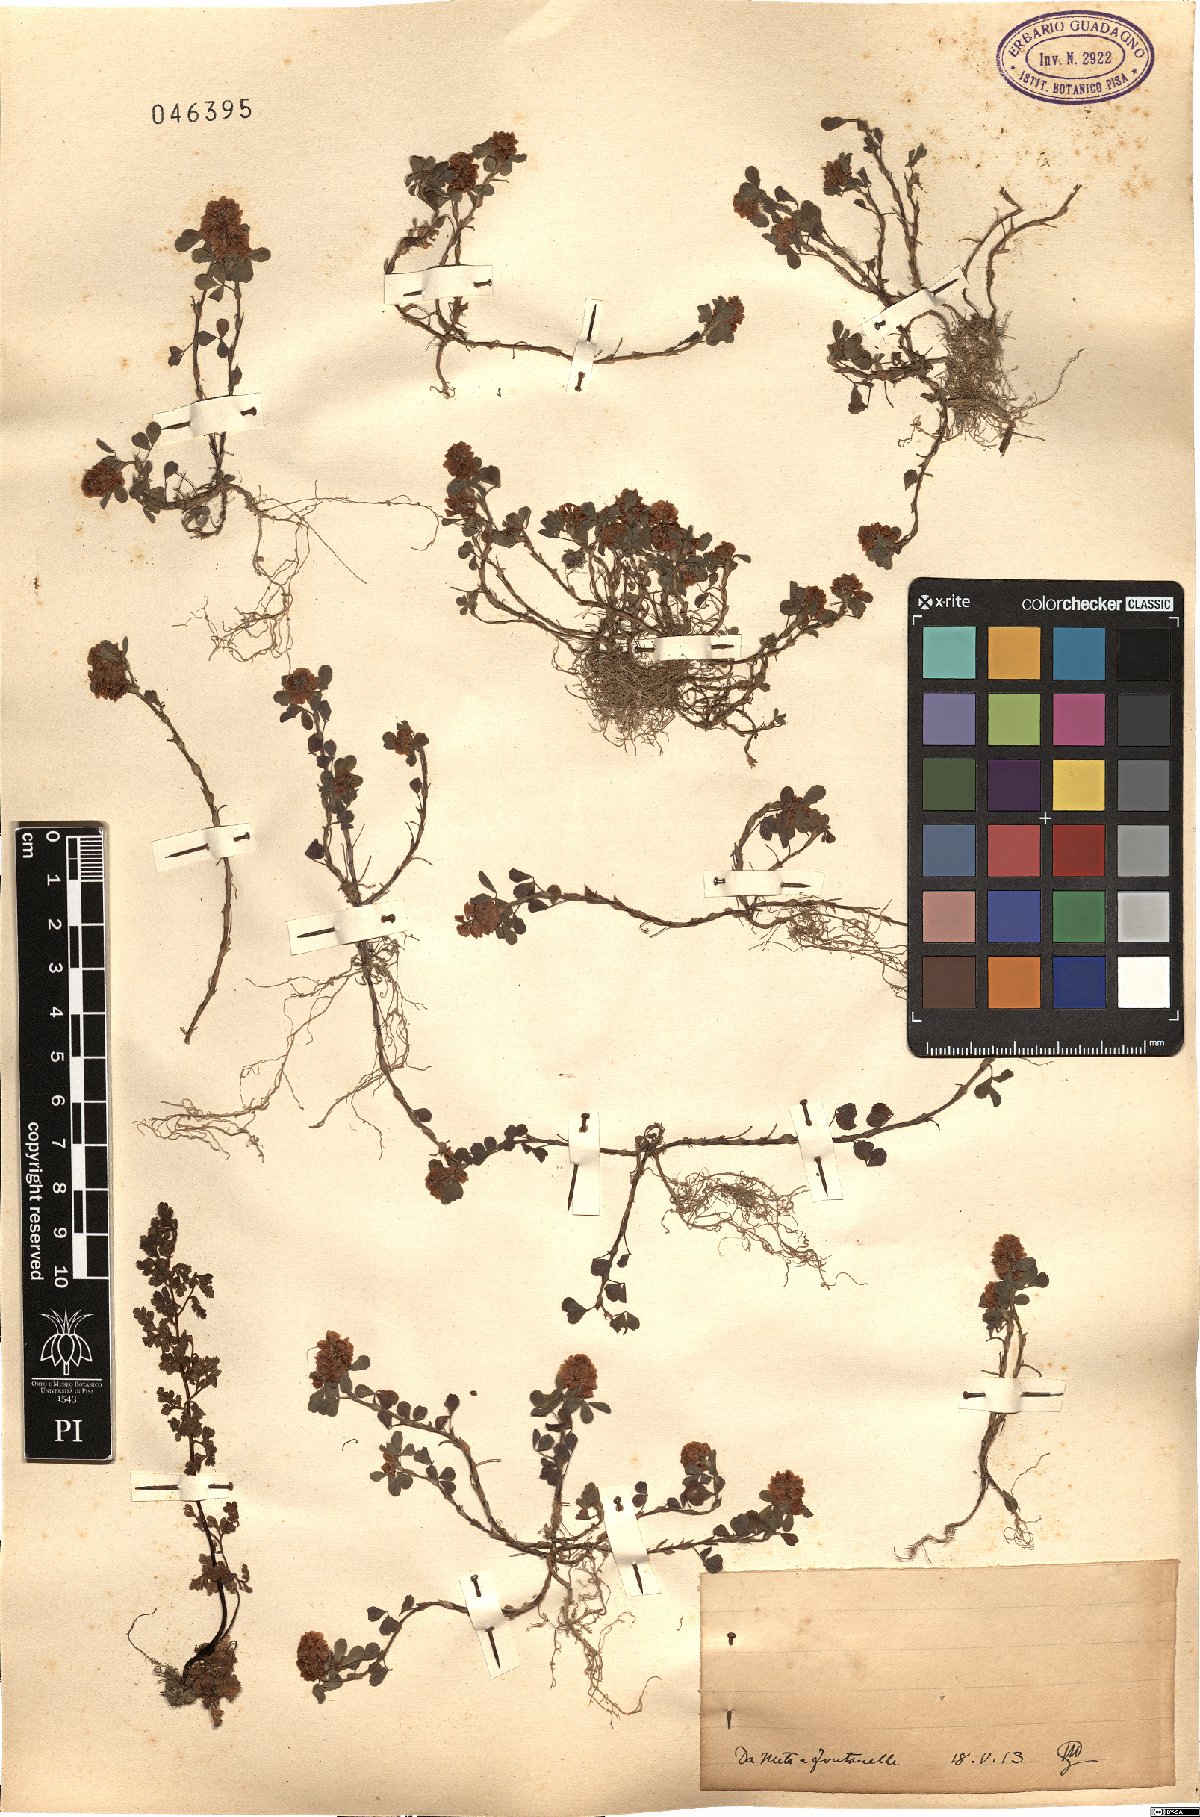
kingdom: Plantae
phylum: Tracheophyta
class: Magnoliopsida
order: Fabales
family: Fabaceae
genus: Trifolium
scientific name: Trifolium
